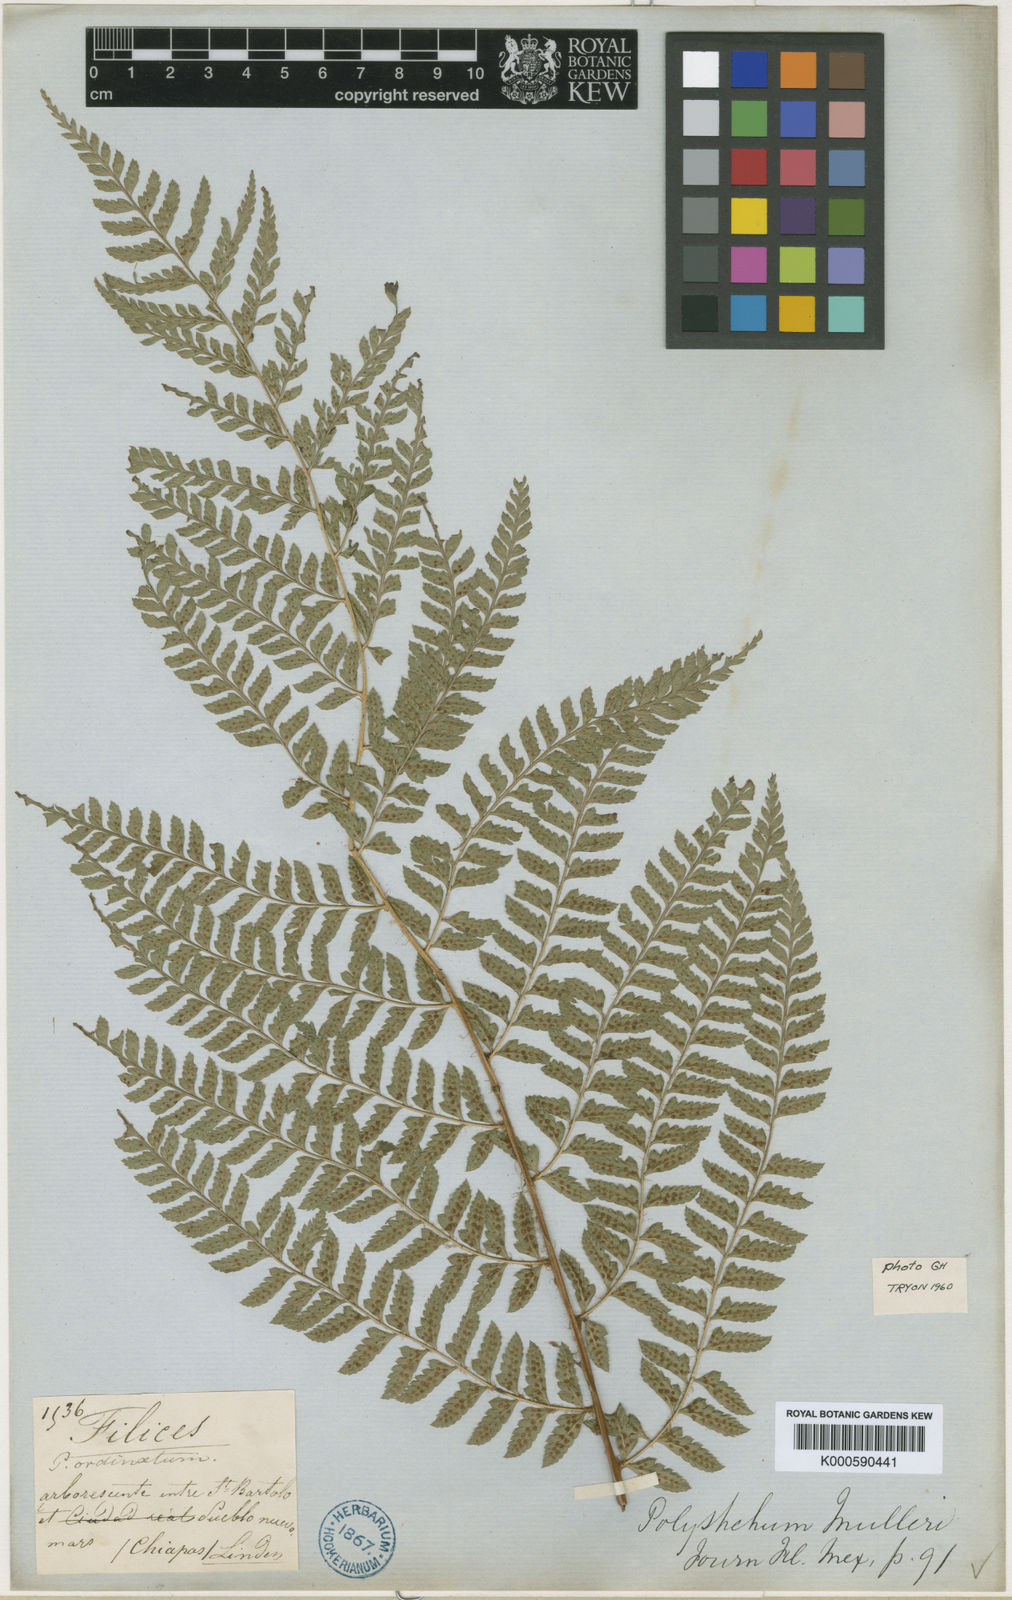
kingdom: Plantae
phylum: Tracheophyta
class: Polypodiopsida
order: Polypodiales
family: Dryopteridaceae
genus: Polystichum
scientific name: Polystichum
